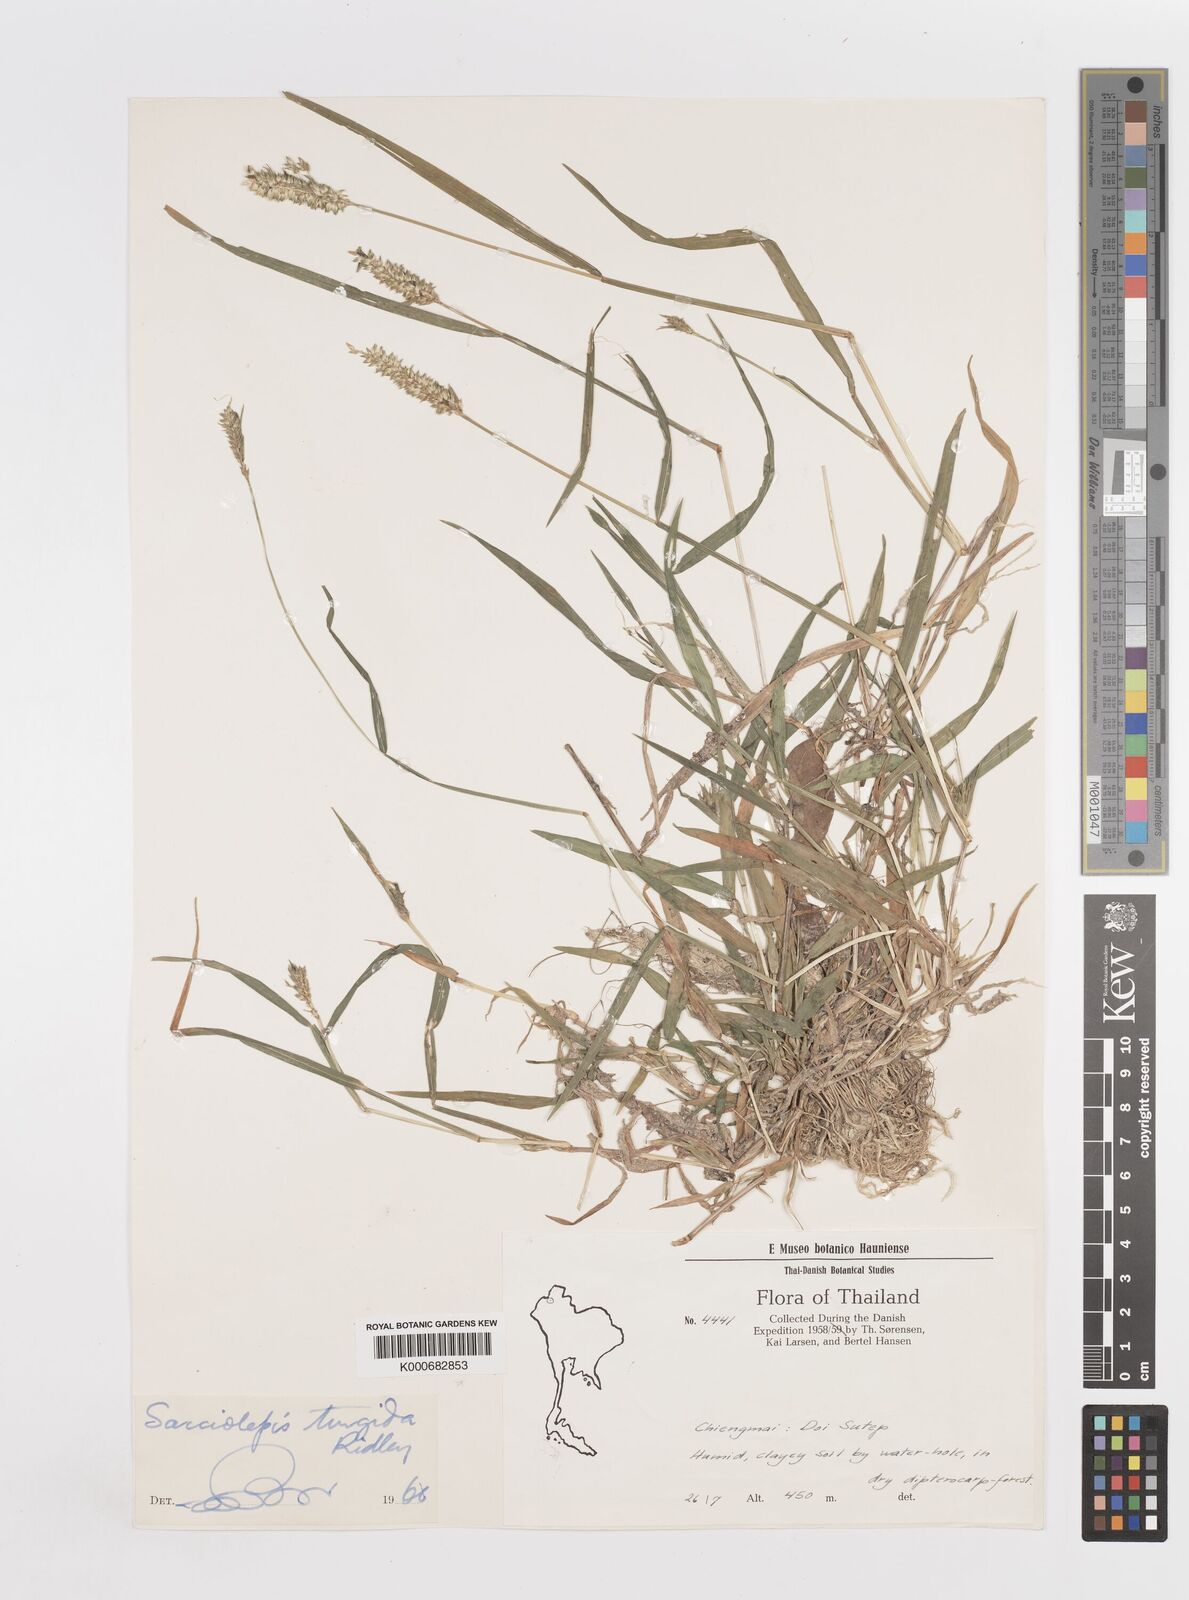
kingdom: Plantae
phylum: Tracheophyta
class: Liliopsida
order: Poales
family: Poaceae
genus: Sacciolepis
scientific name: Sacciolepis indica
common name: Glenwoodgrass
